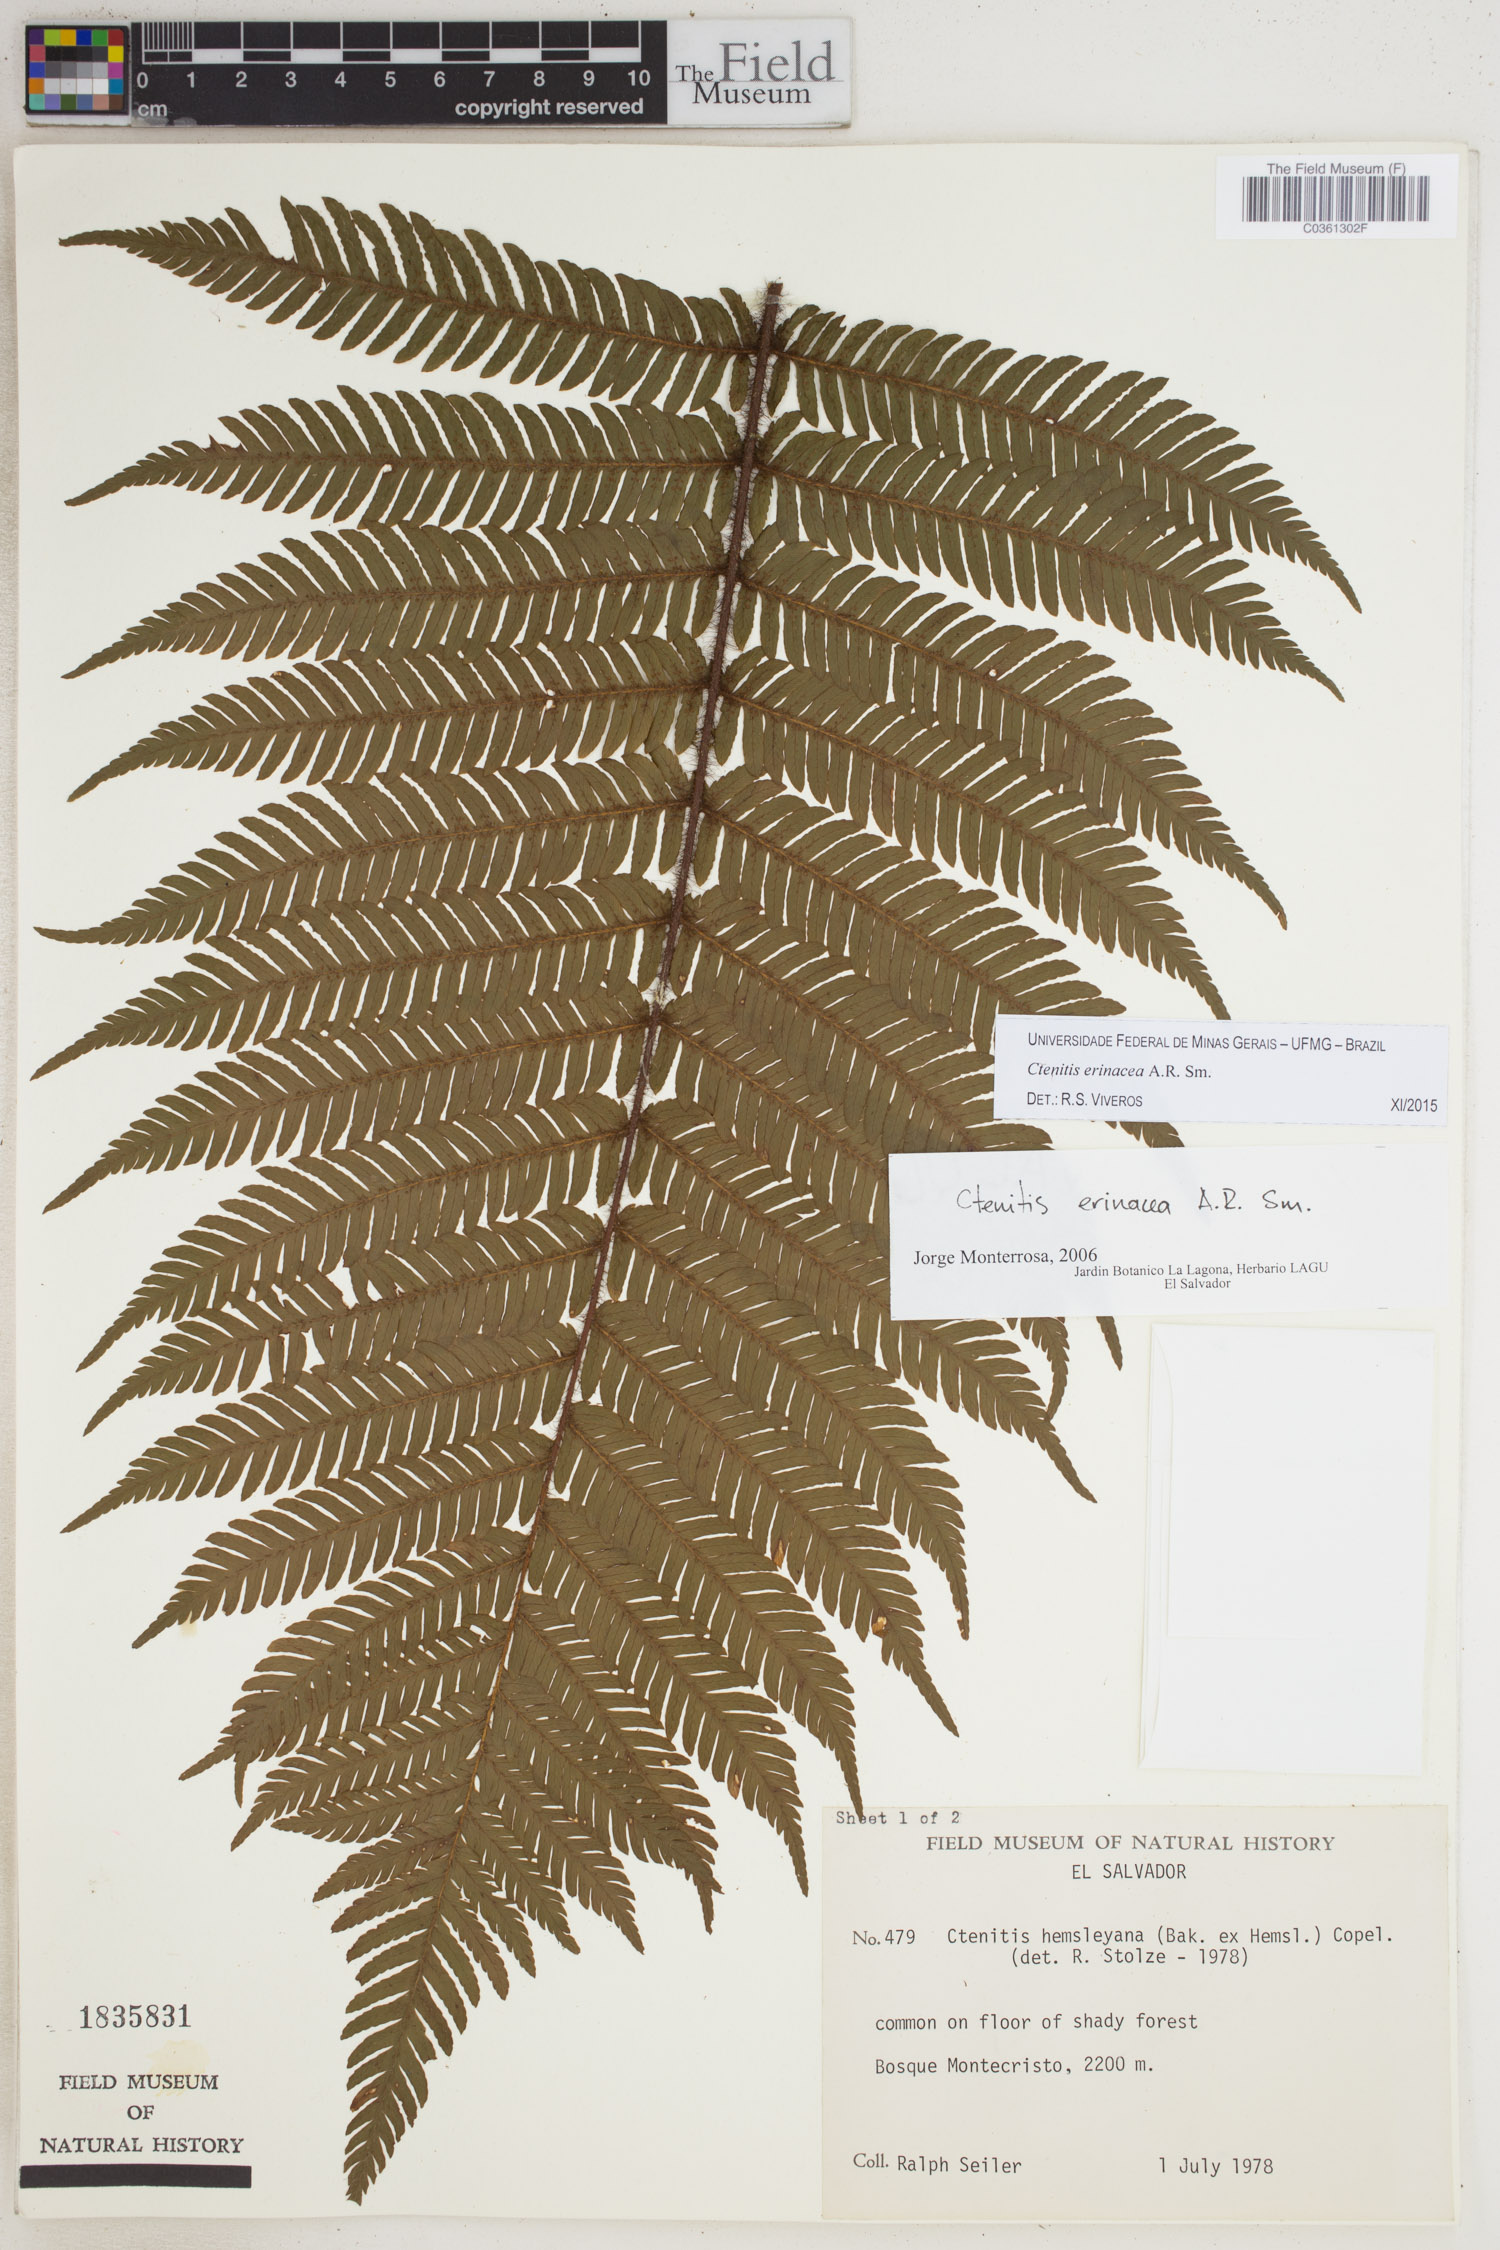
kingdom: Plantae
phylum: Tracheophyta
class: Polypodiopsida
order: Polypodiales
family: Dryopteridaceae
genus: Ctenitis
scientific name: Ctenitis erinacea
